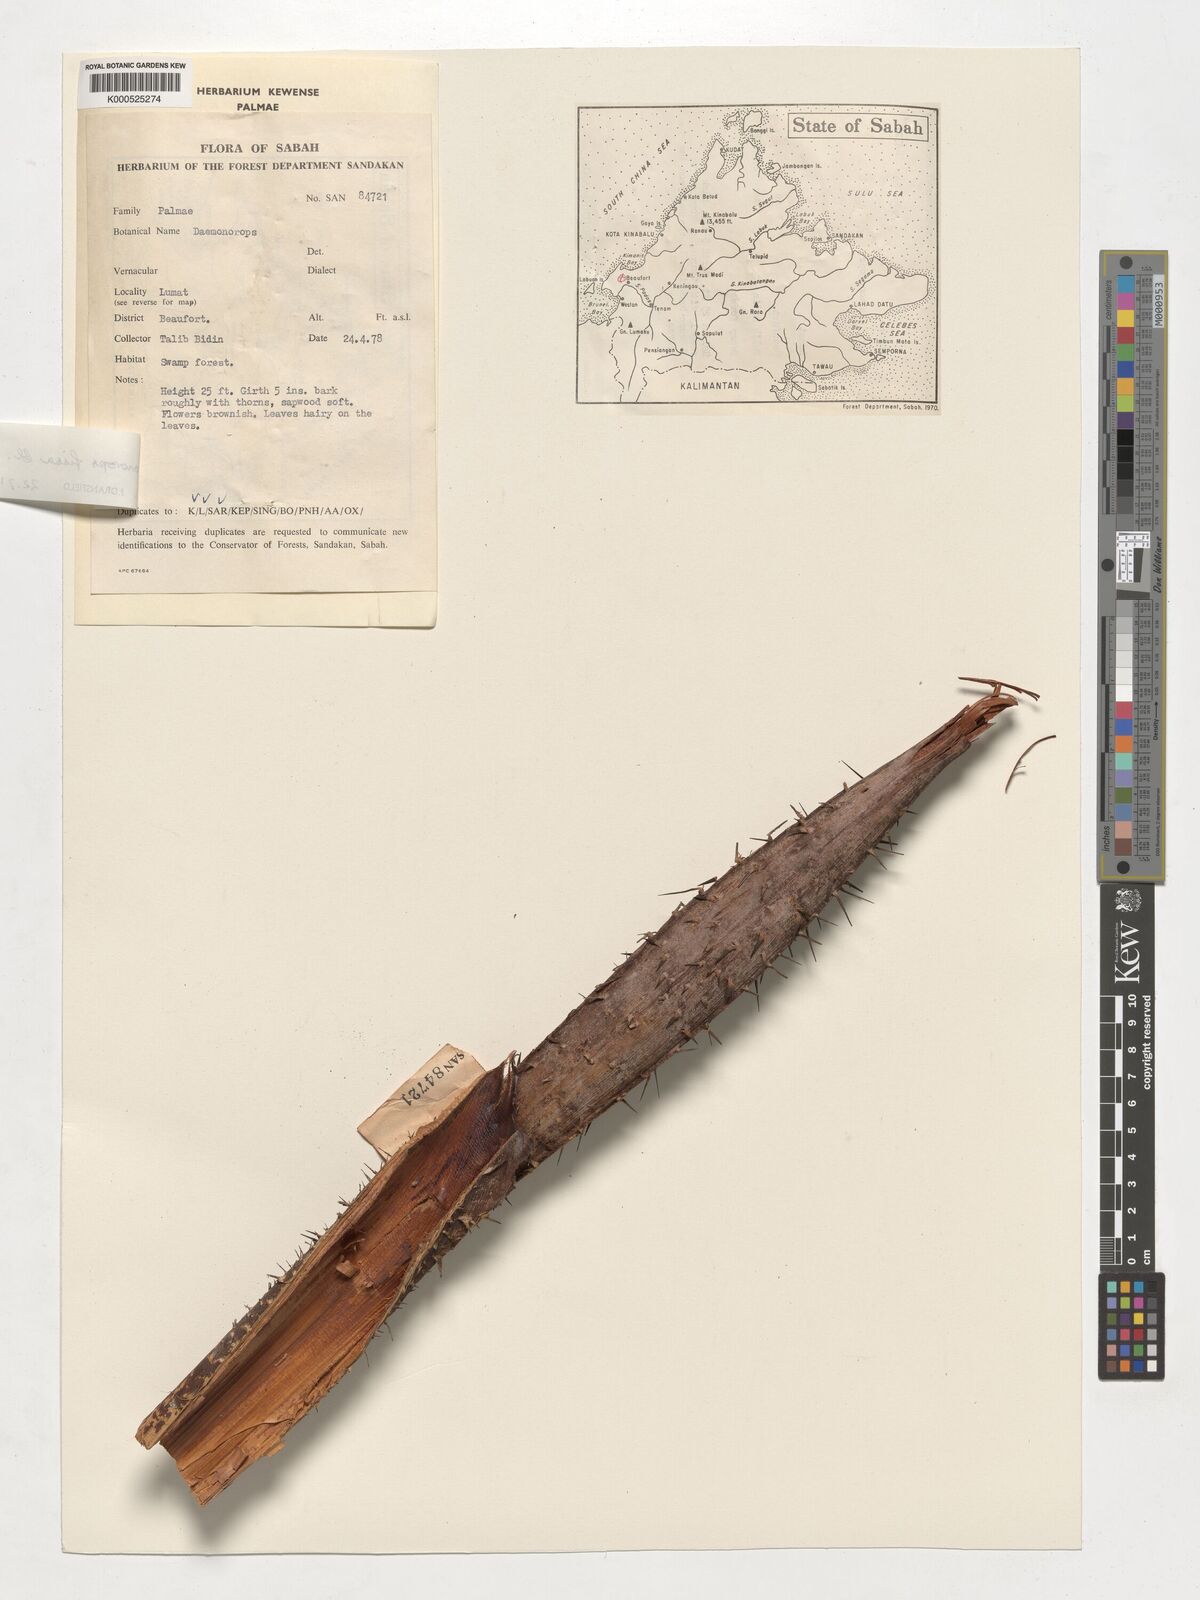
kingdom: Plantae
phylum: Tracheophyta
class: Liliopsida
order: Arecales
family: Arecaceae
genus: Calamus
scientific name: Calamus melanochaetes
